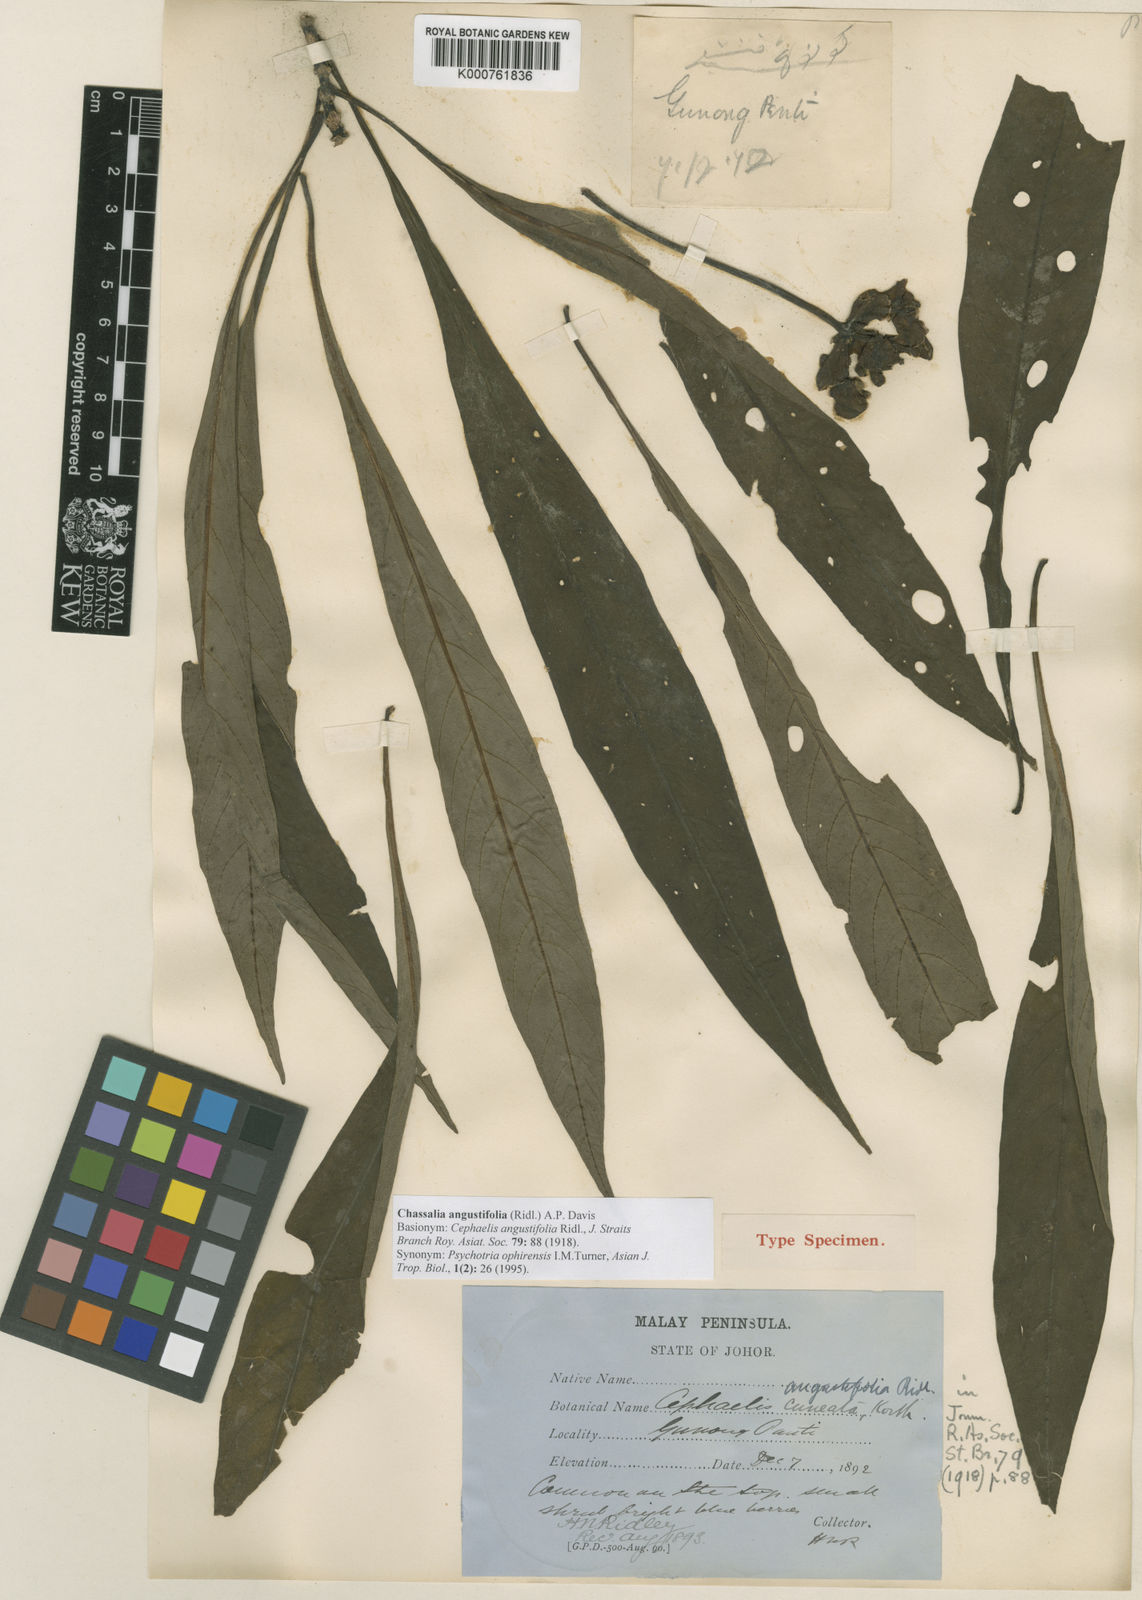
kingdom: Plantae
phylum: Tracheophyta
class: Magnoliopsida
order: Gentianales
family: Rubiaceae
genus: Chassalia
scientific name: Chassalia angustifolia
